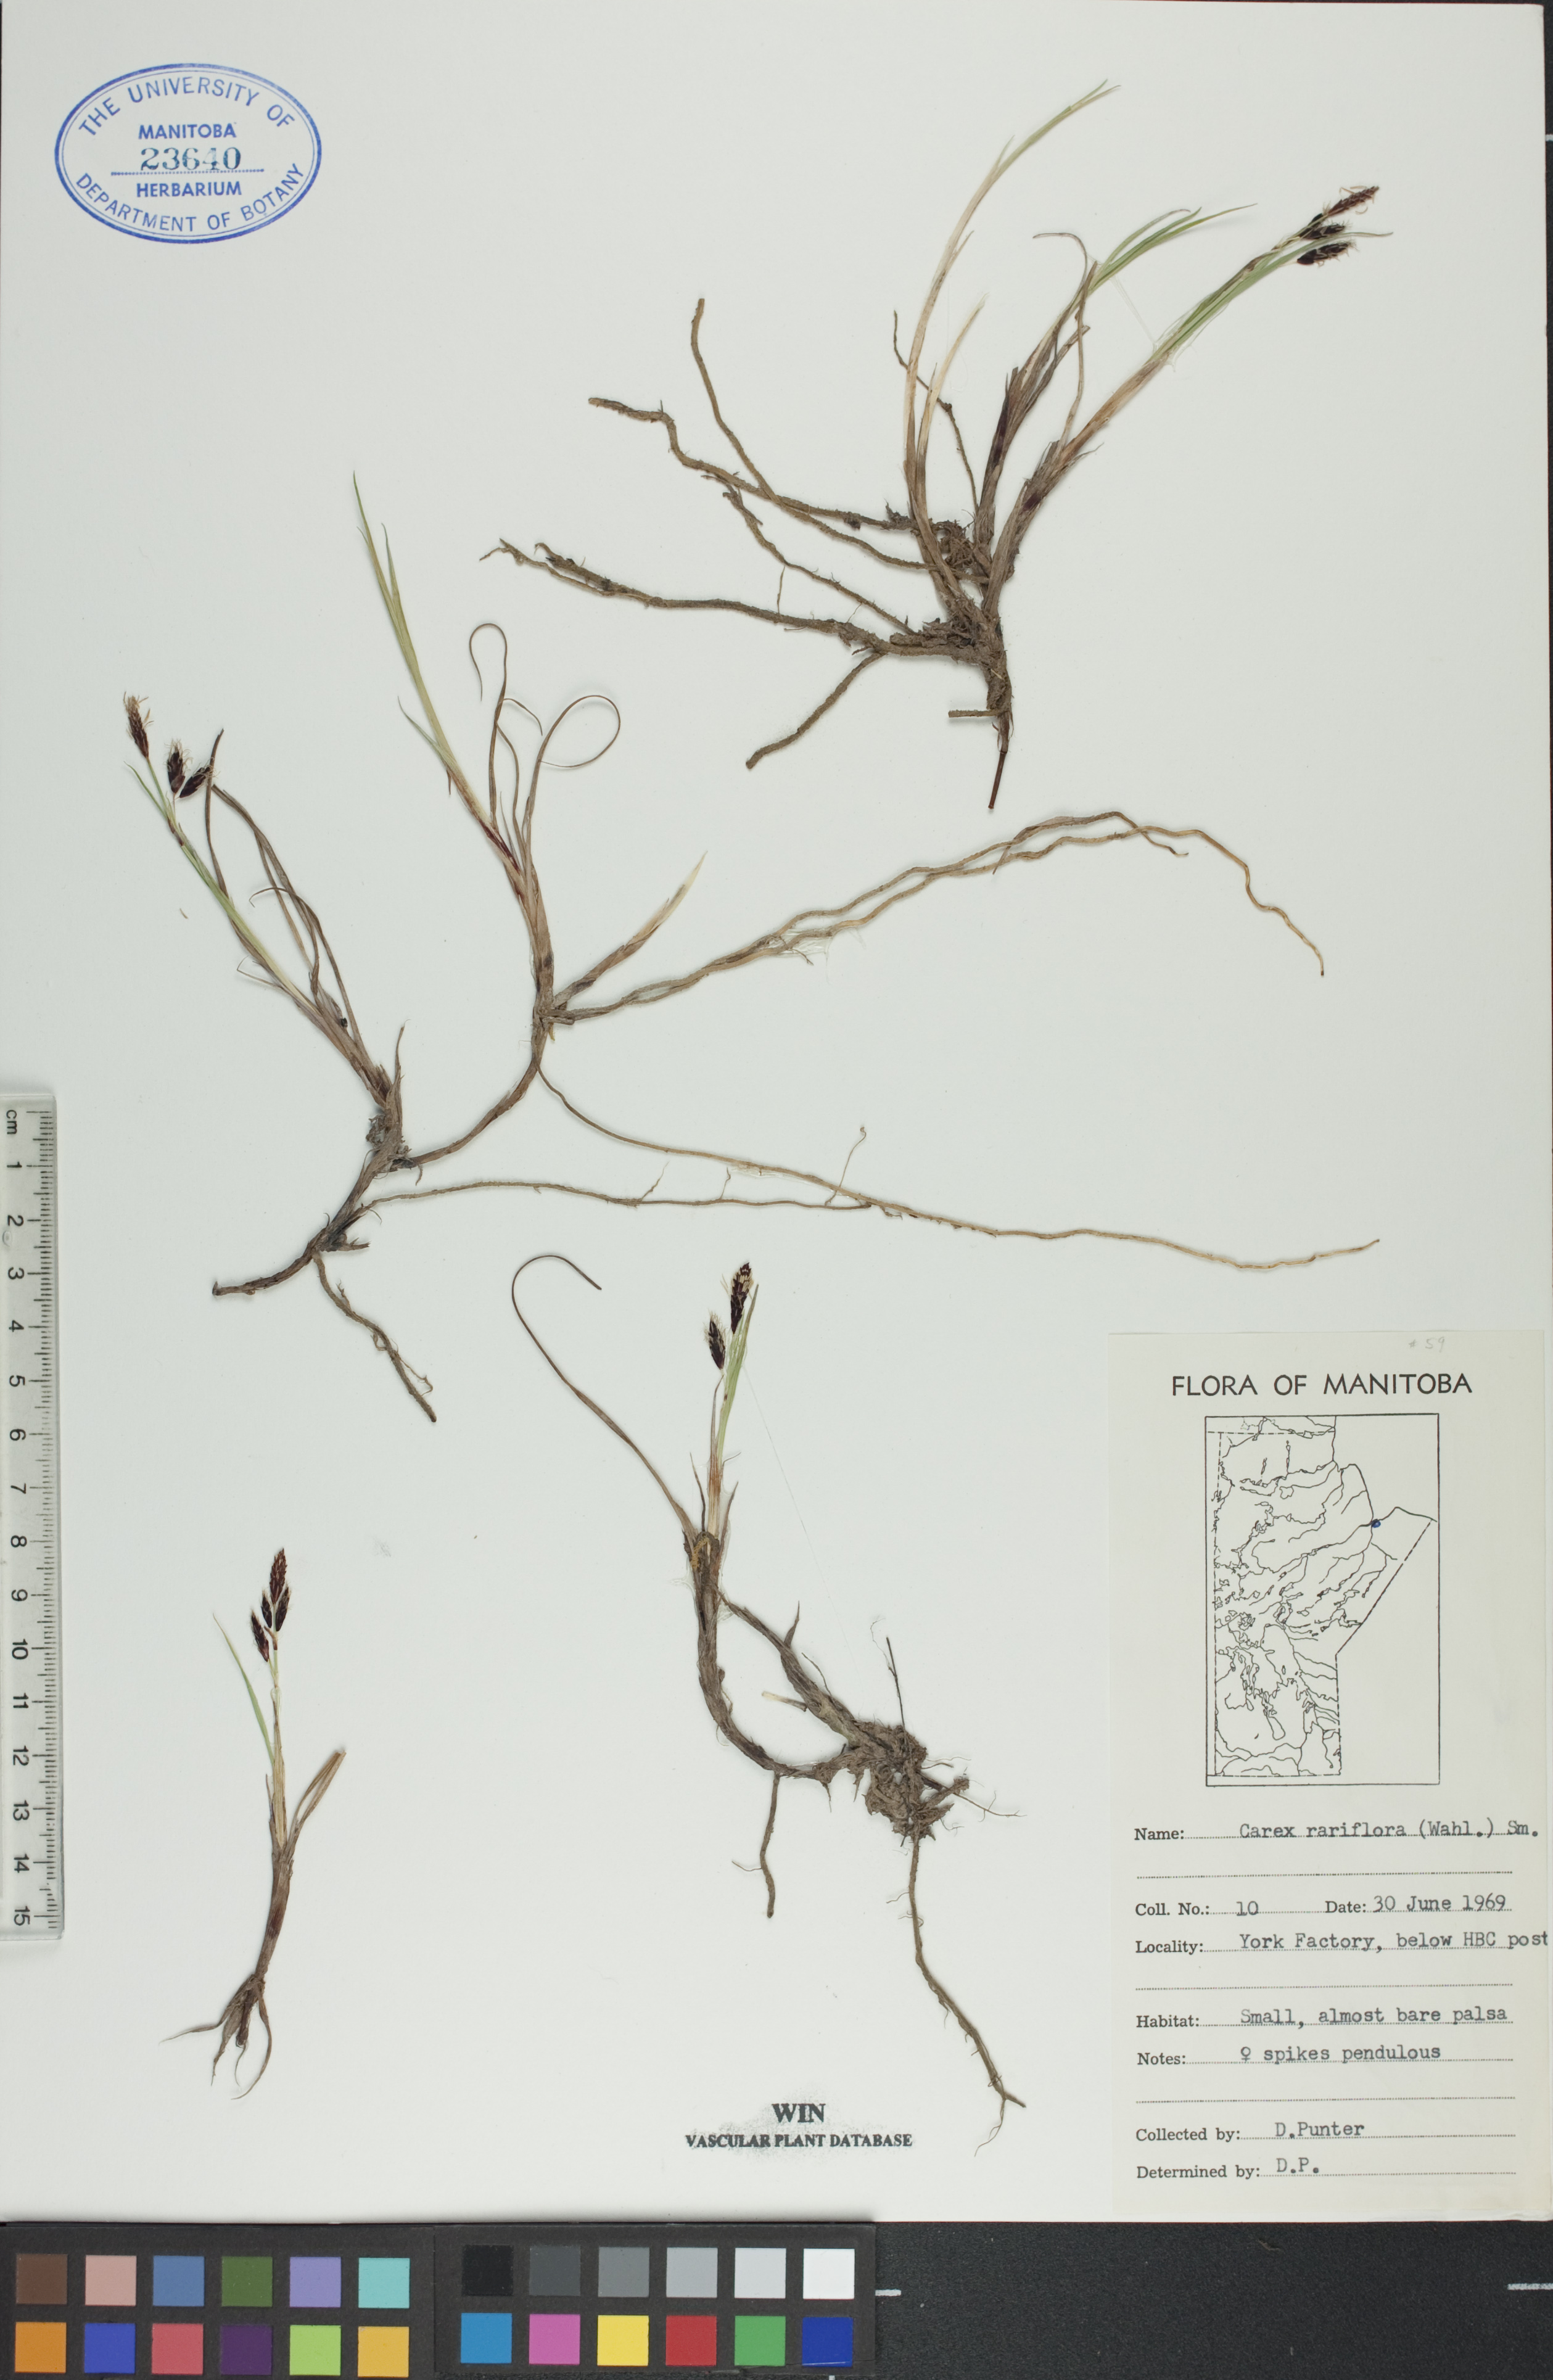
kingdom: Plantae
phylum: Tracheophyta
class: Liliopsida
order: Poales
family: Cyperaceae
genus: Carex
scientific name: Carex rariflora
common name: Loose-flowered alpine sedge
